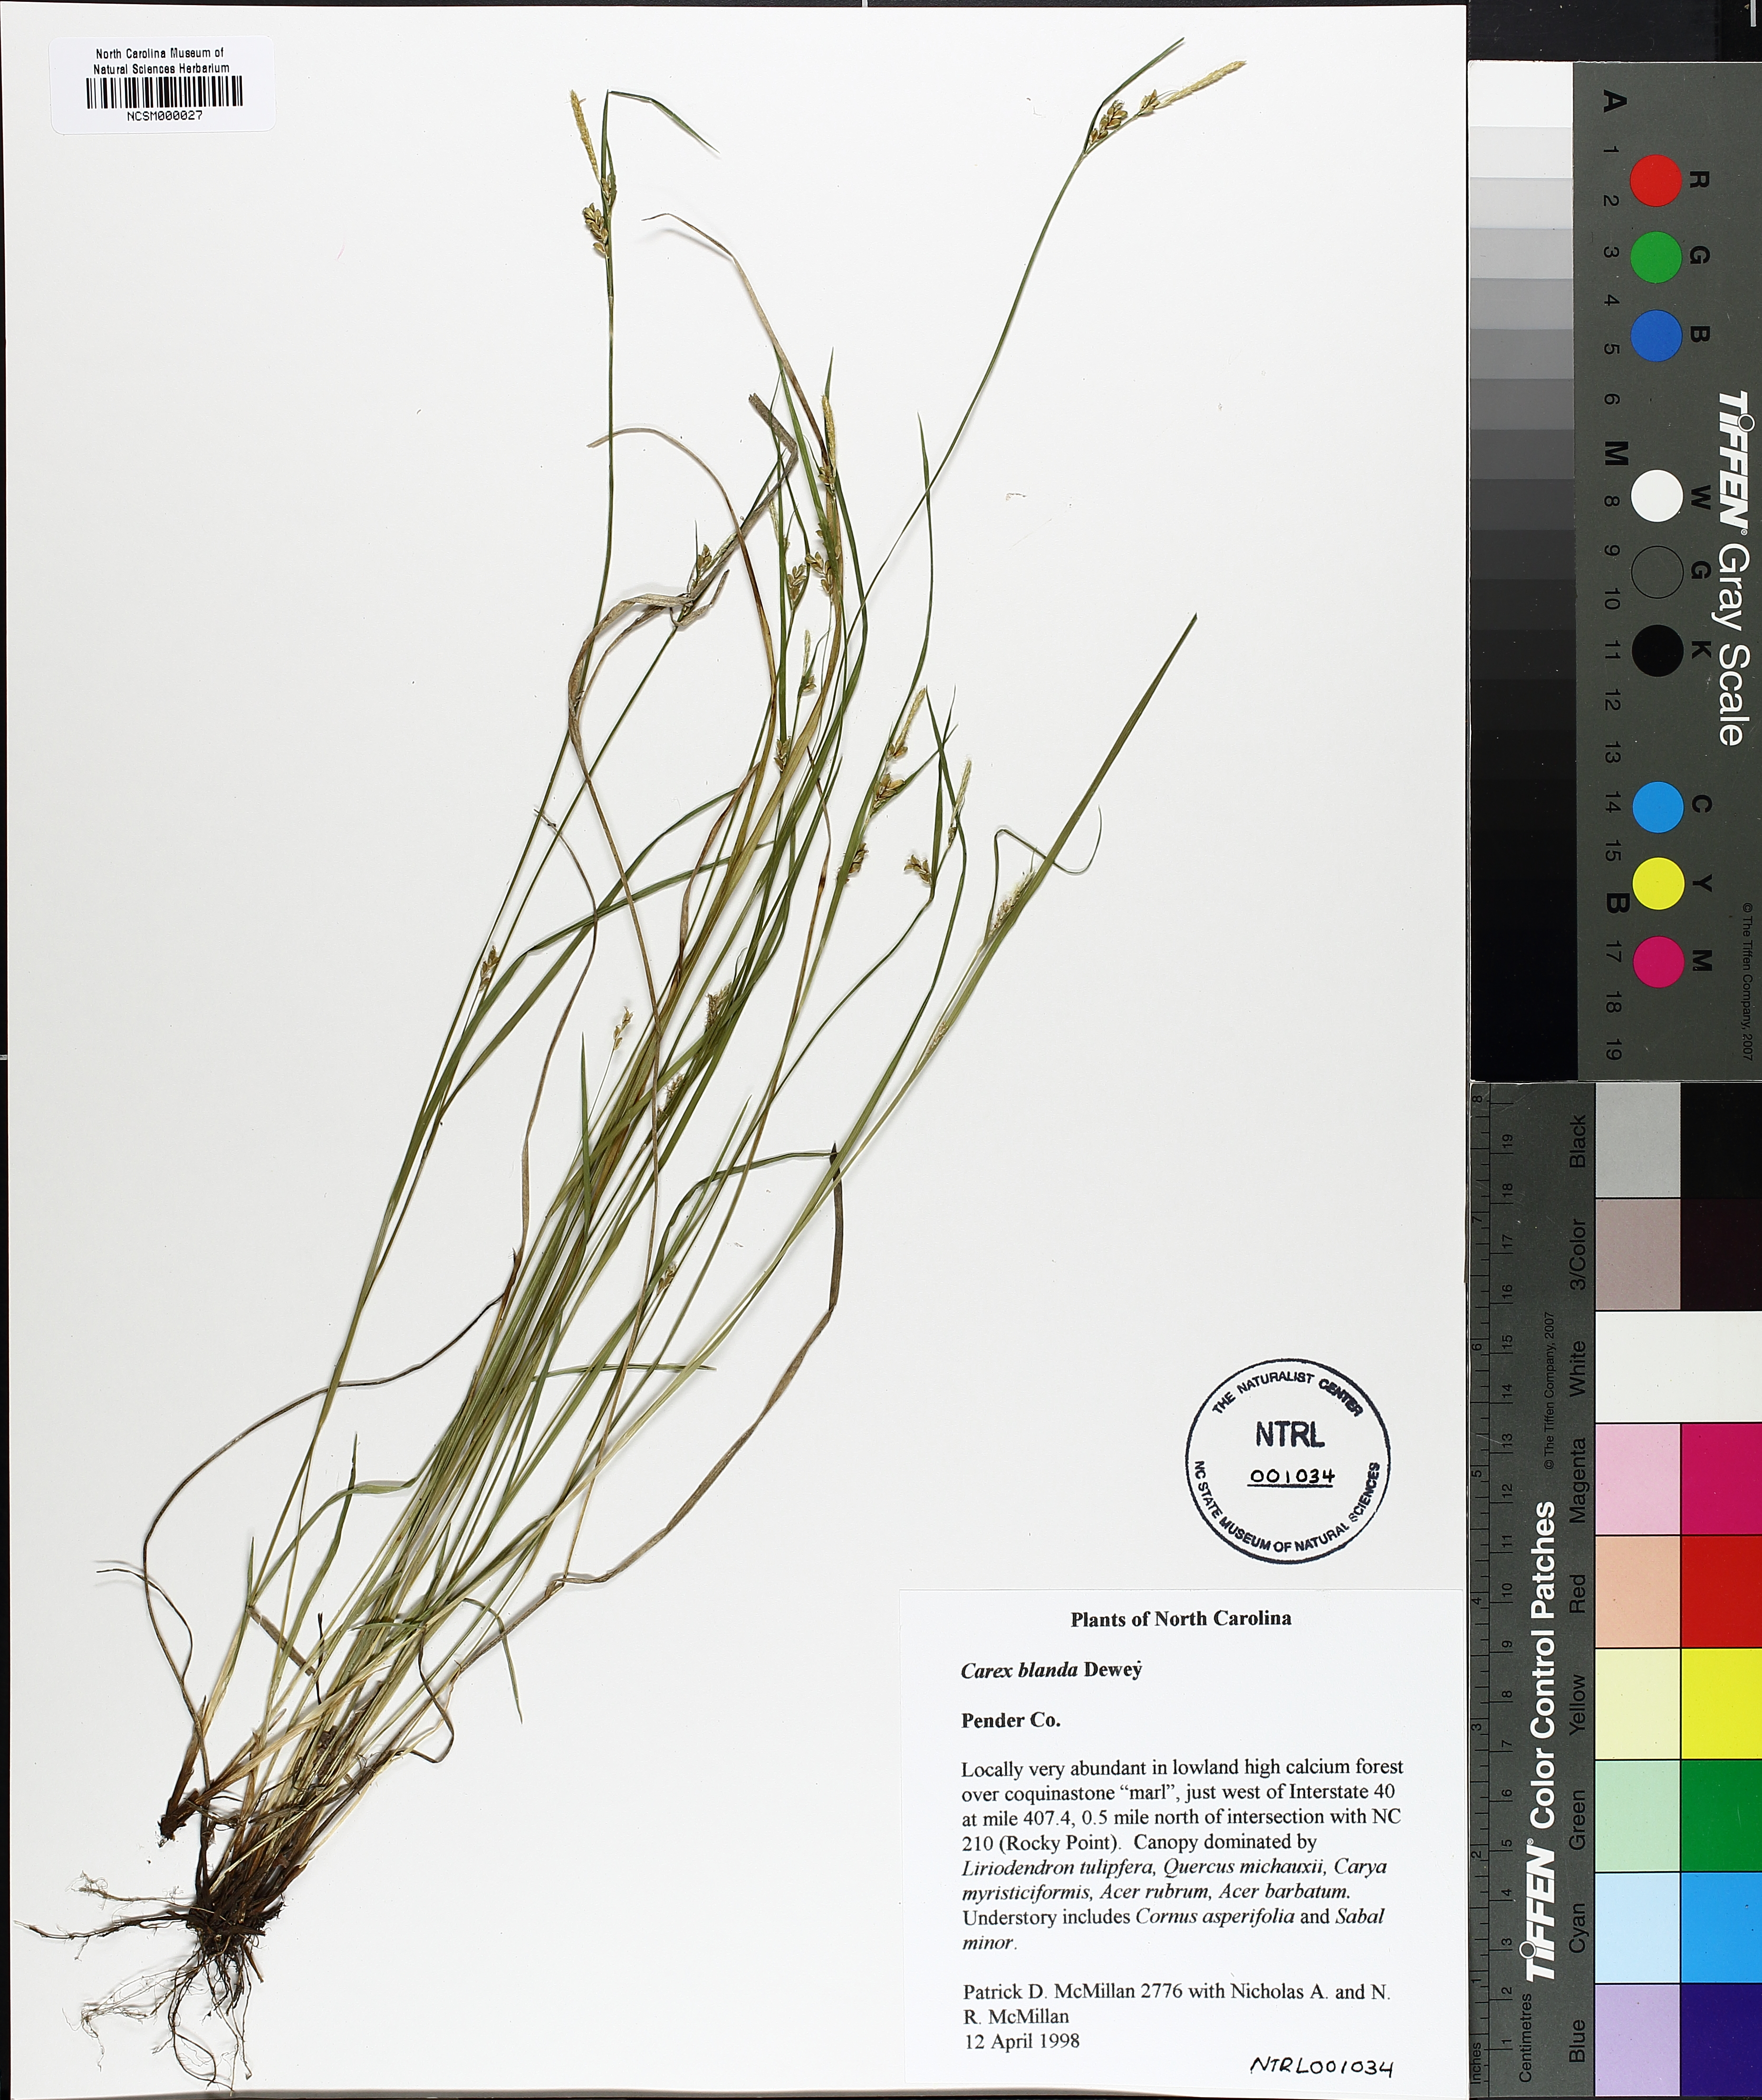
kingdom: Plantae
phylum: Tracheophyta
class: Liliopsida
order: Poales
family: Cyperaceae
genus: Carex
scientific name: Carex blanda
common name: Bland sedge
